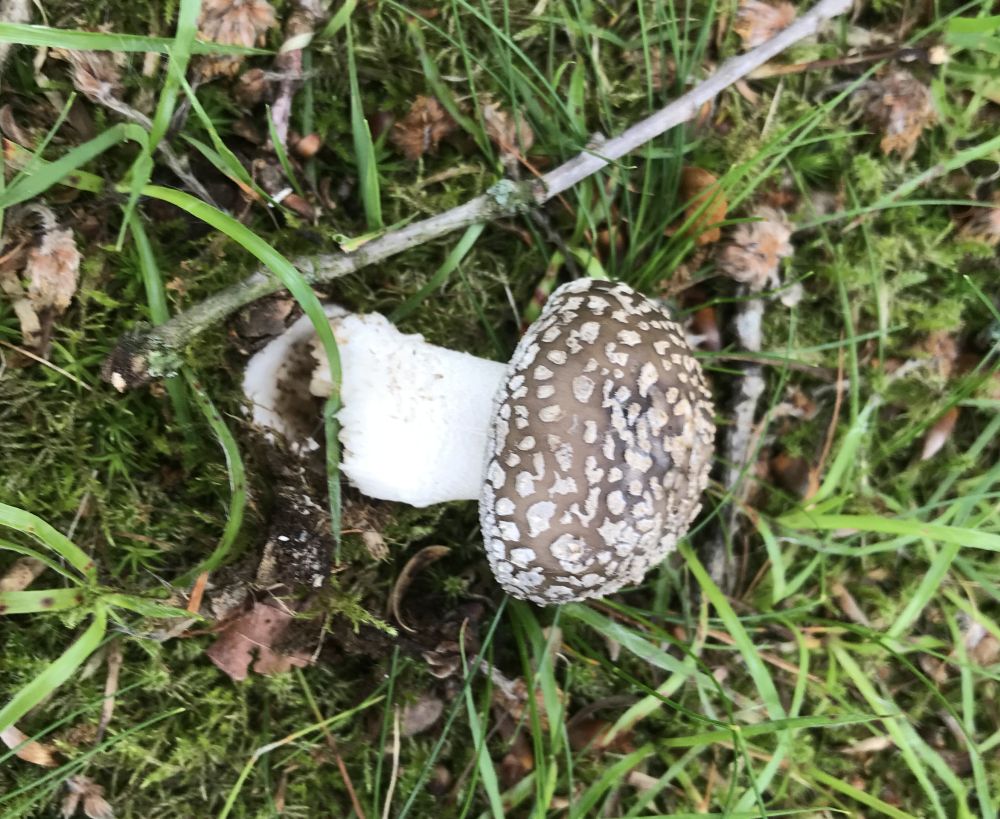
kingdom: Fungi
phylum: Basidiomycota
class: Agaricomycetes
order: Agaricales
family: Amanitaceae
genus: Amanita
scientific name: Amanita pantherina
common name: panter-fluesvamp
